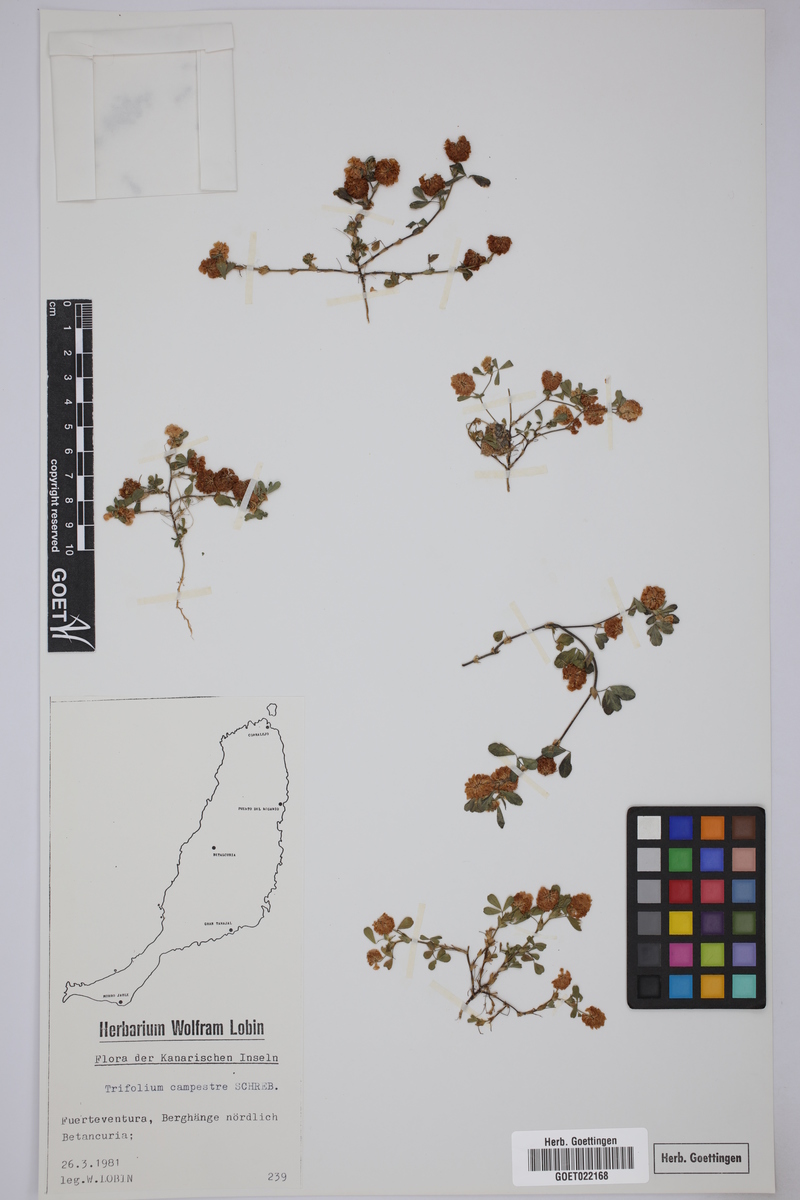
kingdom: Plantae
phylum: Tracheophyta
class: Magnoliopsida
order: Fabales
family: Fabaceae
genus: Trifolium
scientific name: Trifolium campestre
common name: Field clover
